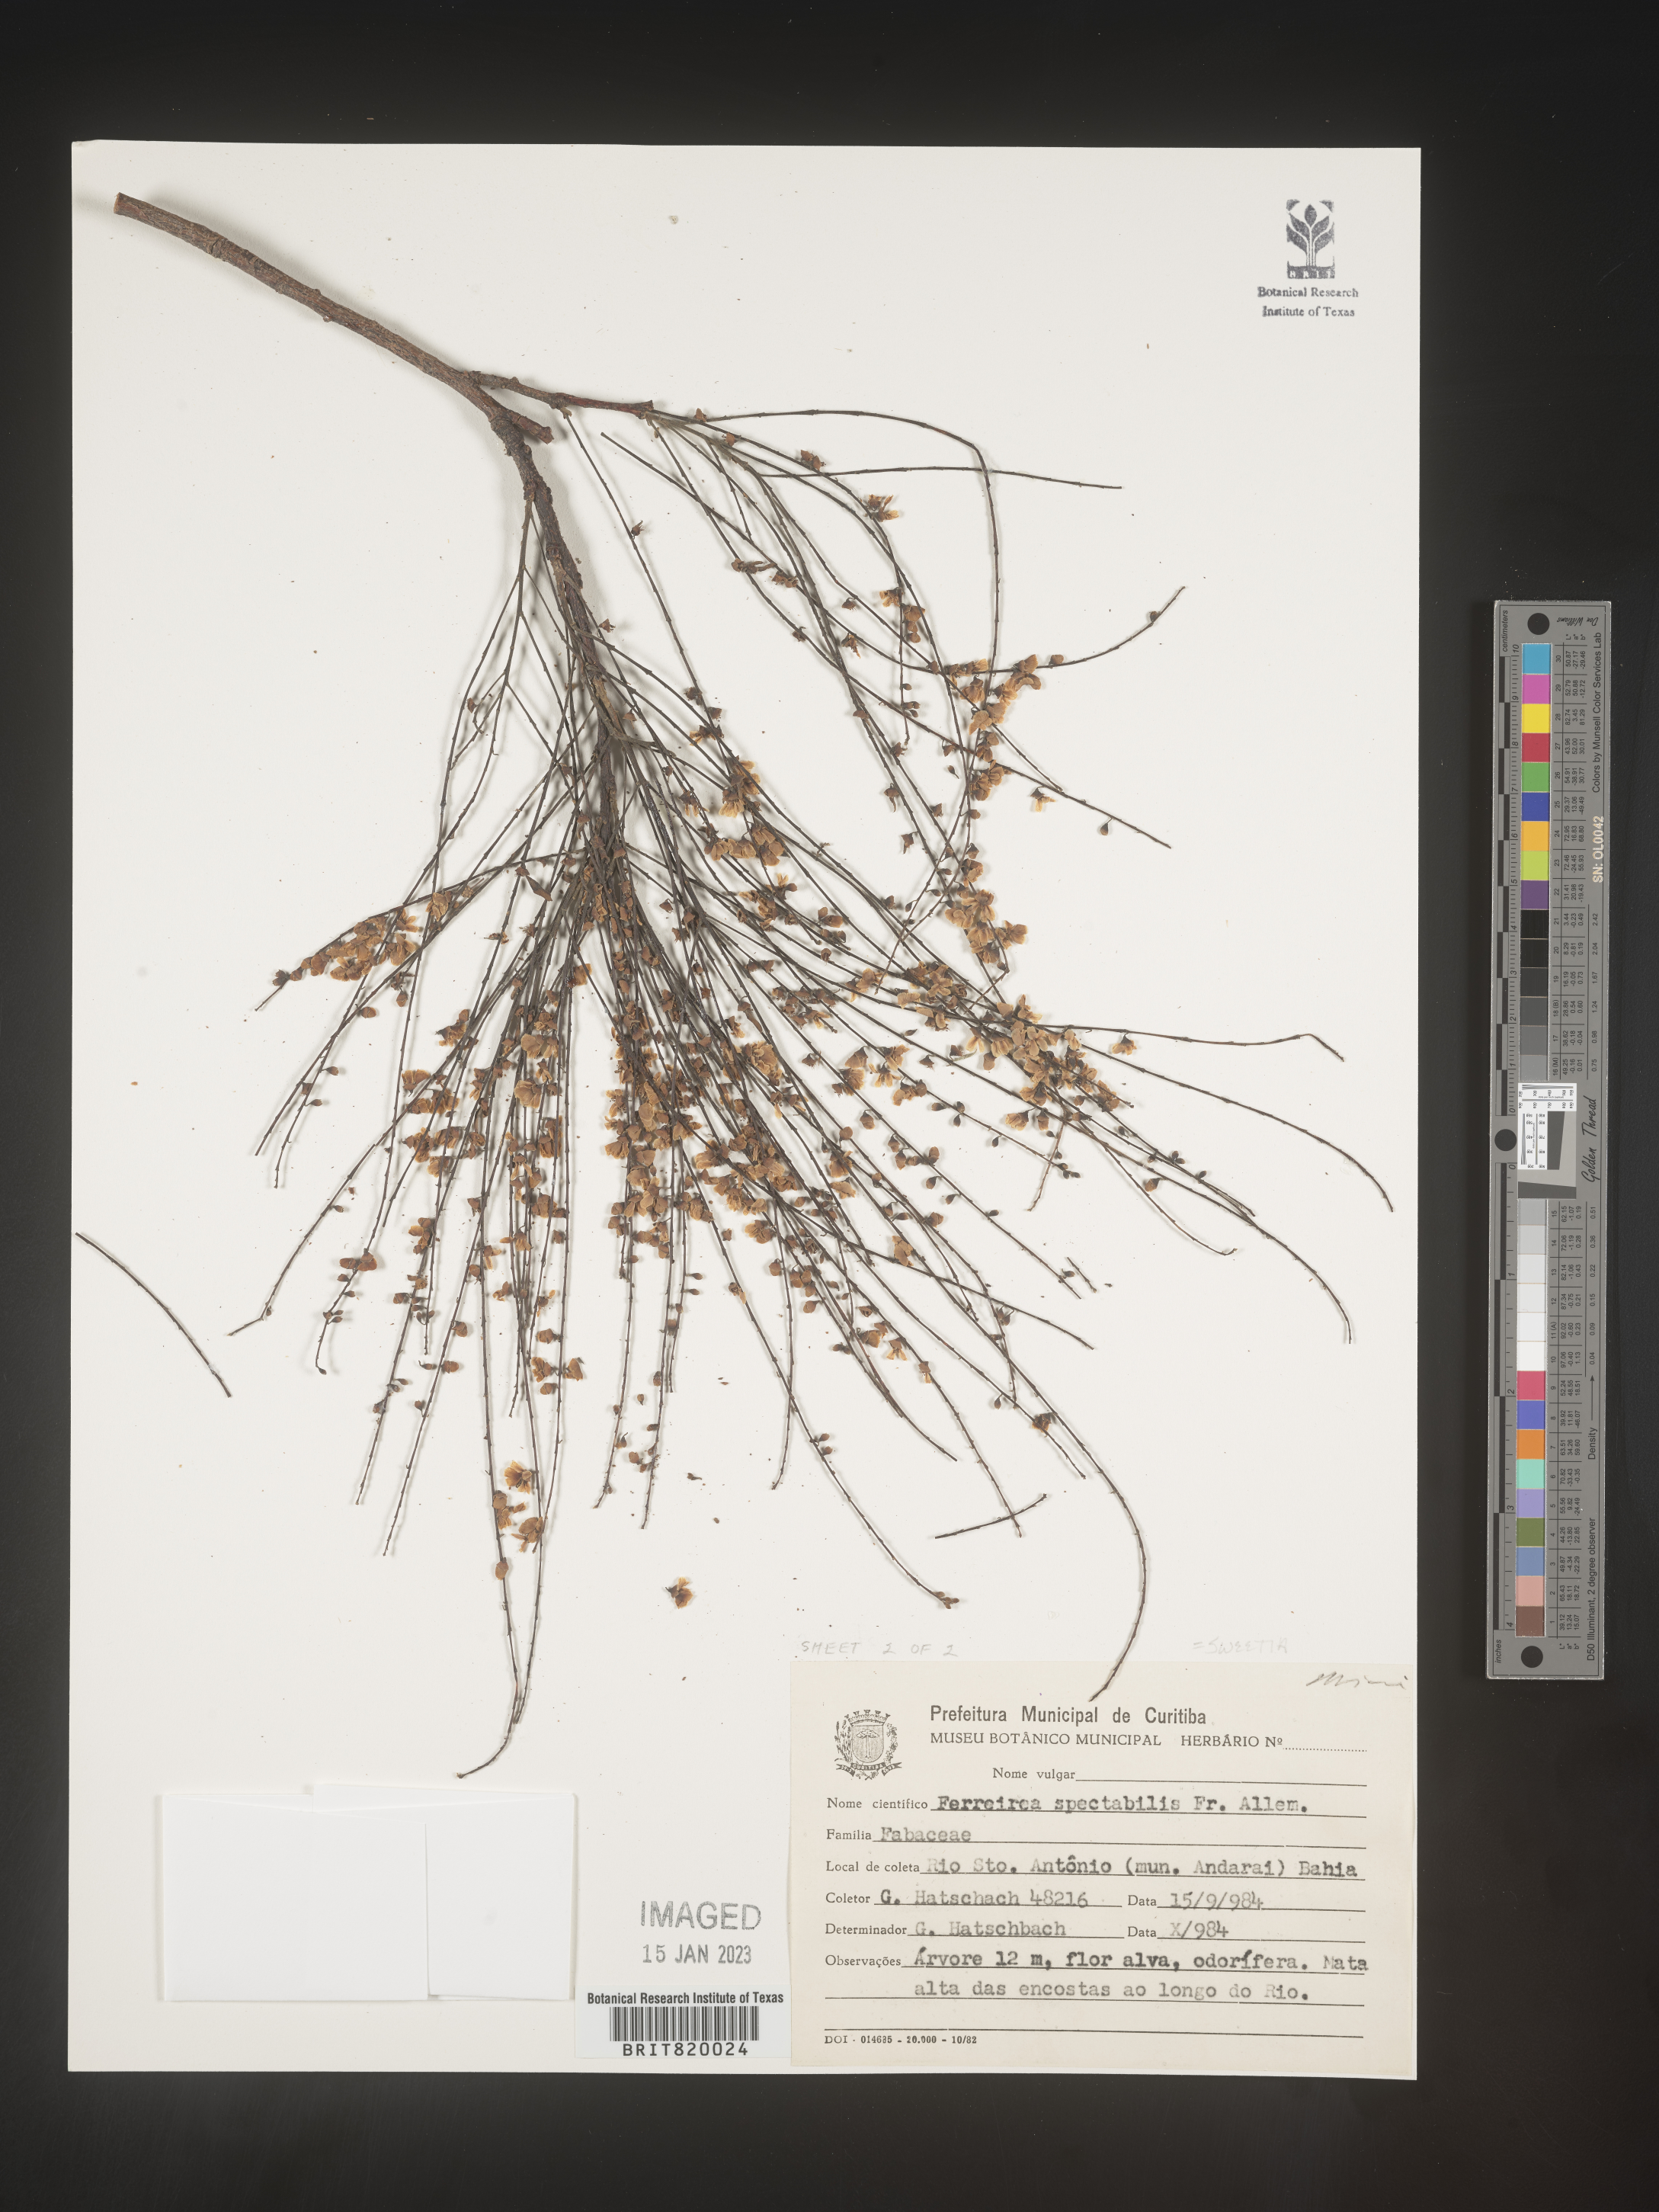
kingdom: Plantae
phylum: Tracheophyta
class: Magnoliopsida
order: Fabales
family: Fabaceae
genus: Sweetia
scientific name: Sweetia
